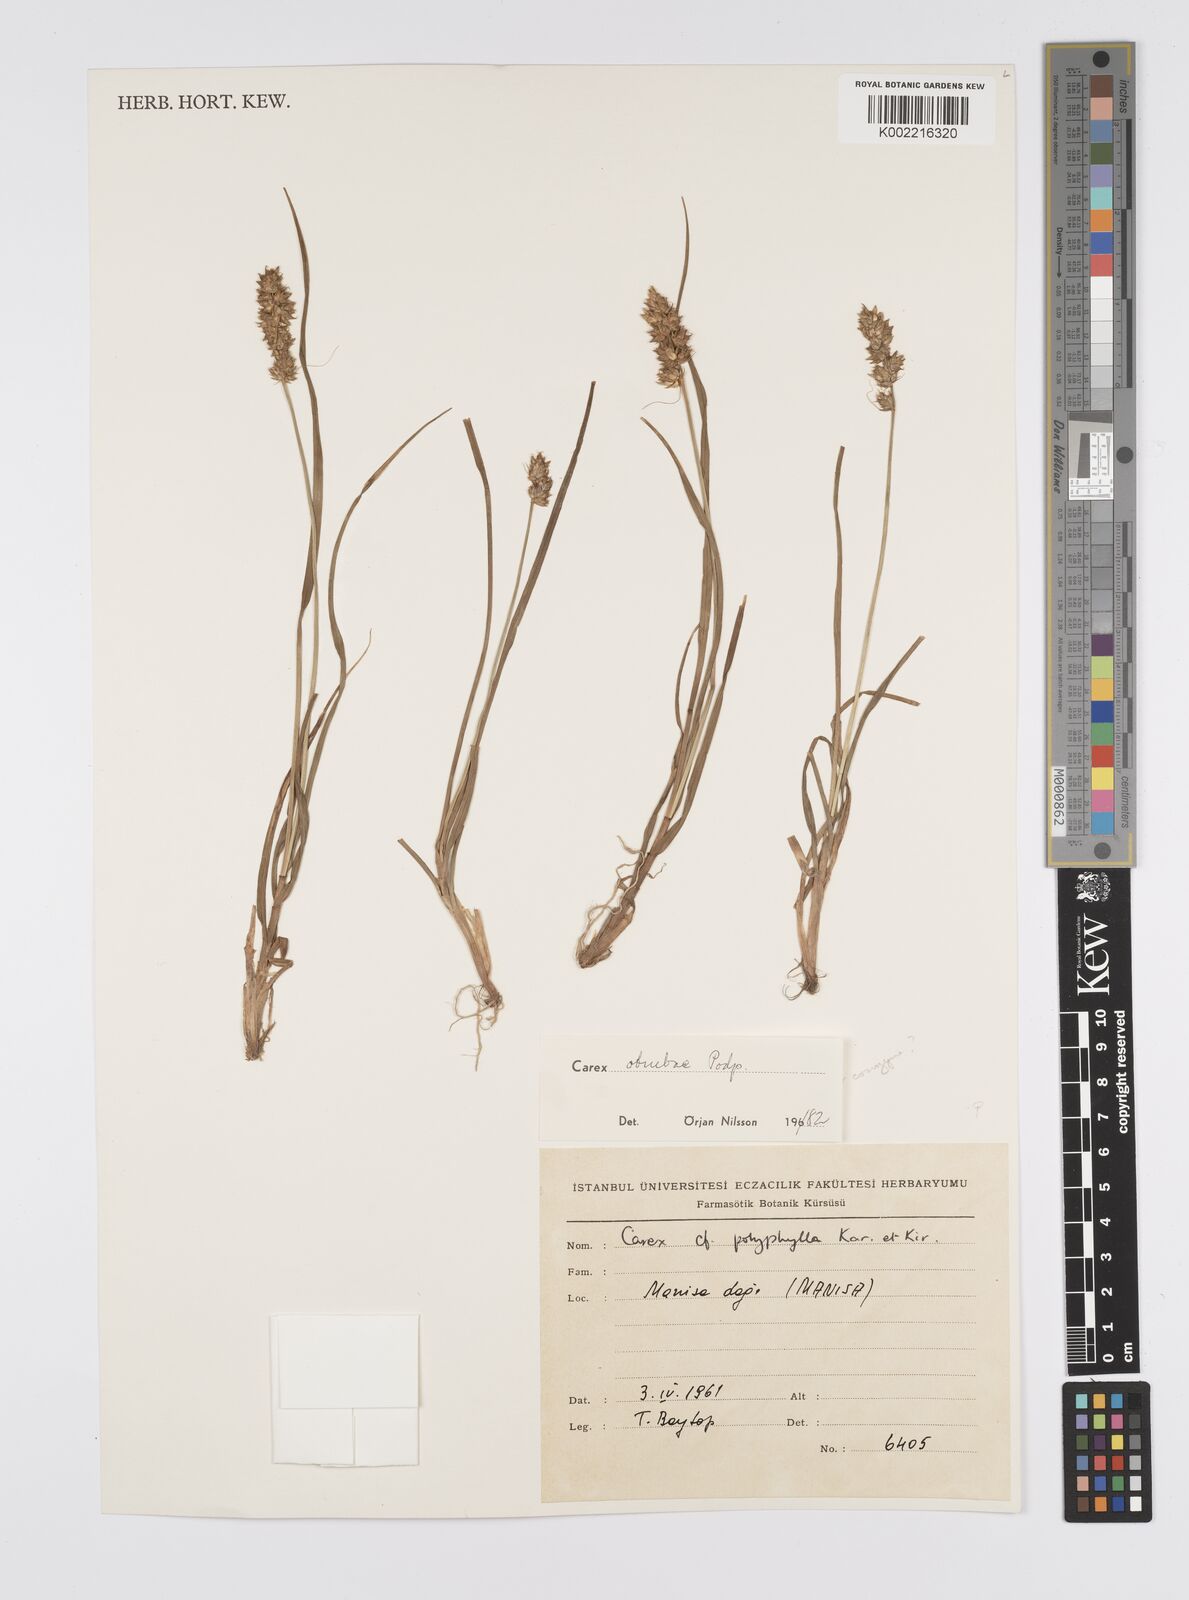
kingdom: Plantae
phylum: Tracheophyta
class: Liliopsida
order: Poales
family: Cyperaceae
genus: Carex
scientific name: Carex otrubae
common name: False fox-sedge
